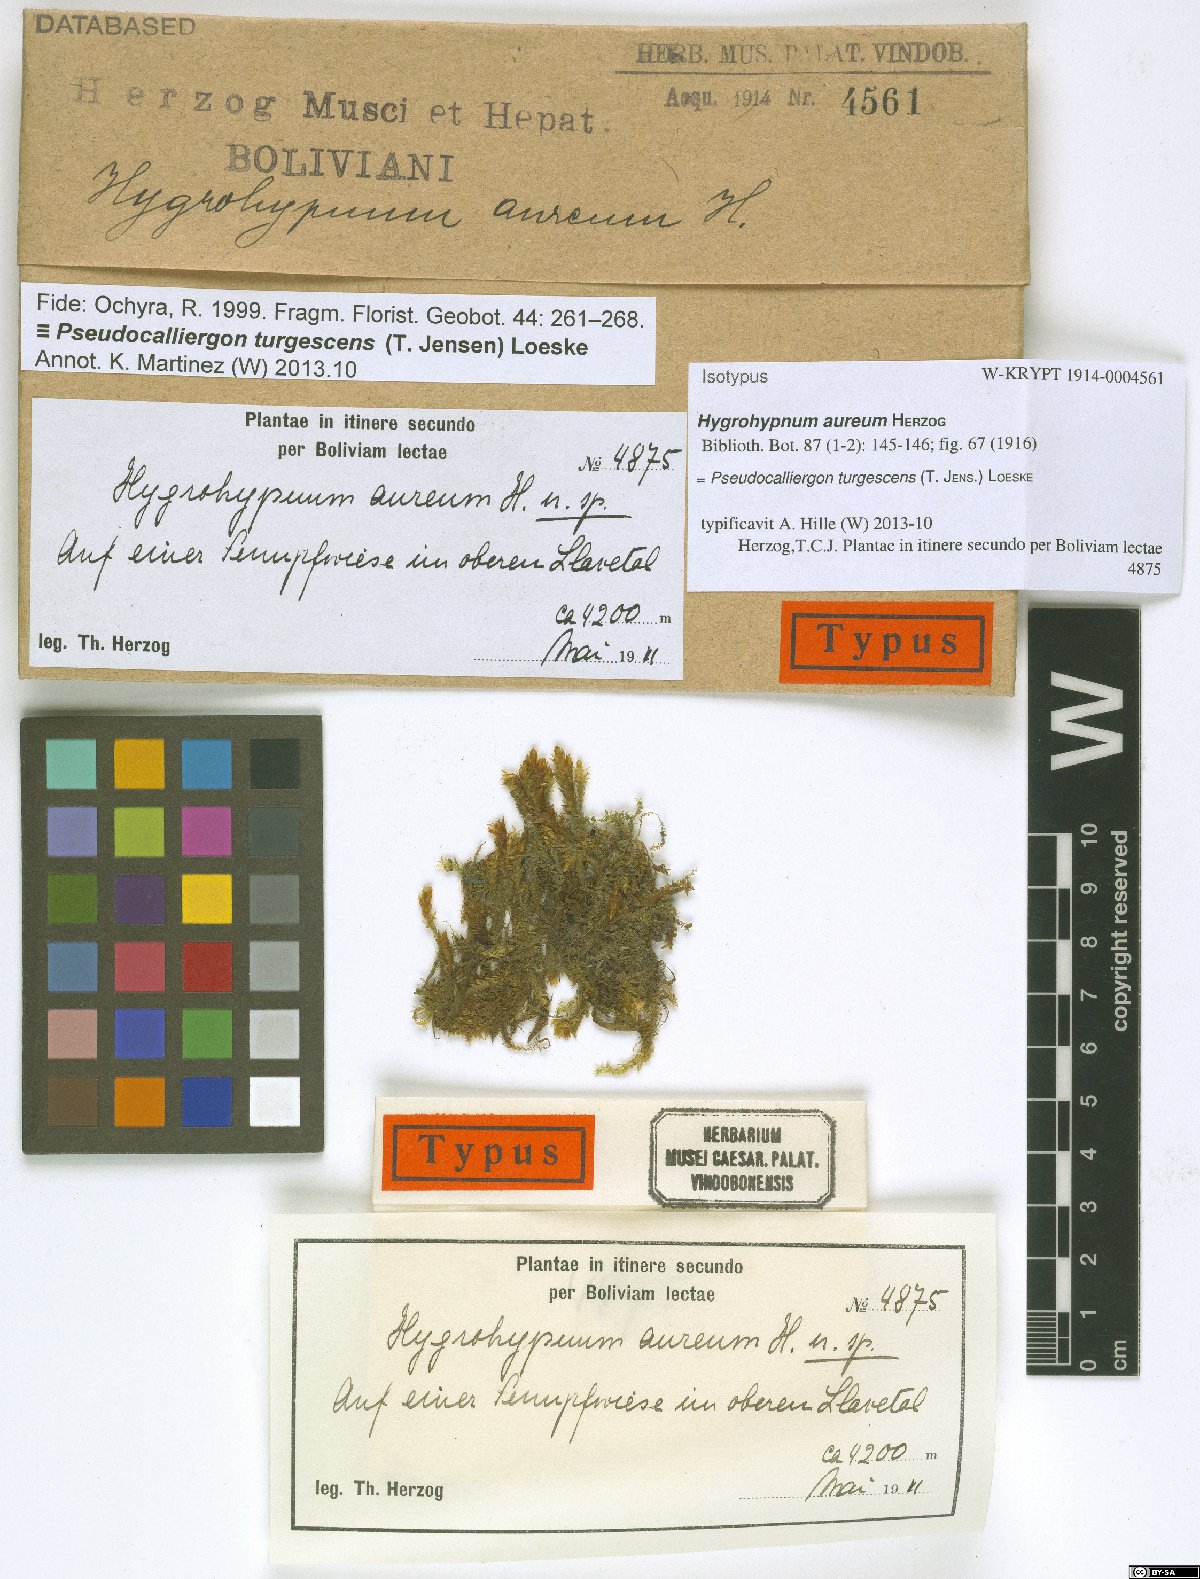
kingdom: Plantae
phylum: Bryophyta
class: Bryopsida
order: Hypnales
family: Amblystegiaceae
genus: Drepanocladus
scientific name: Drepanocladus turgescens
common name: Large yellow feather-moss
